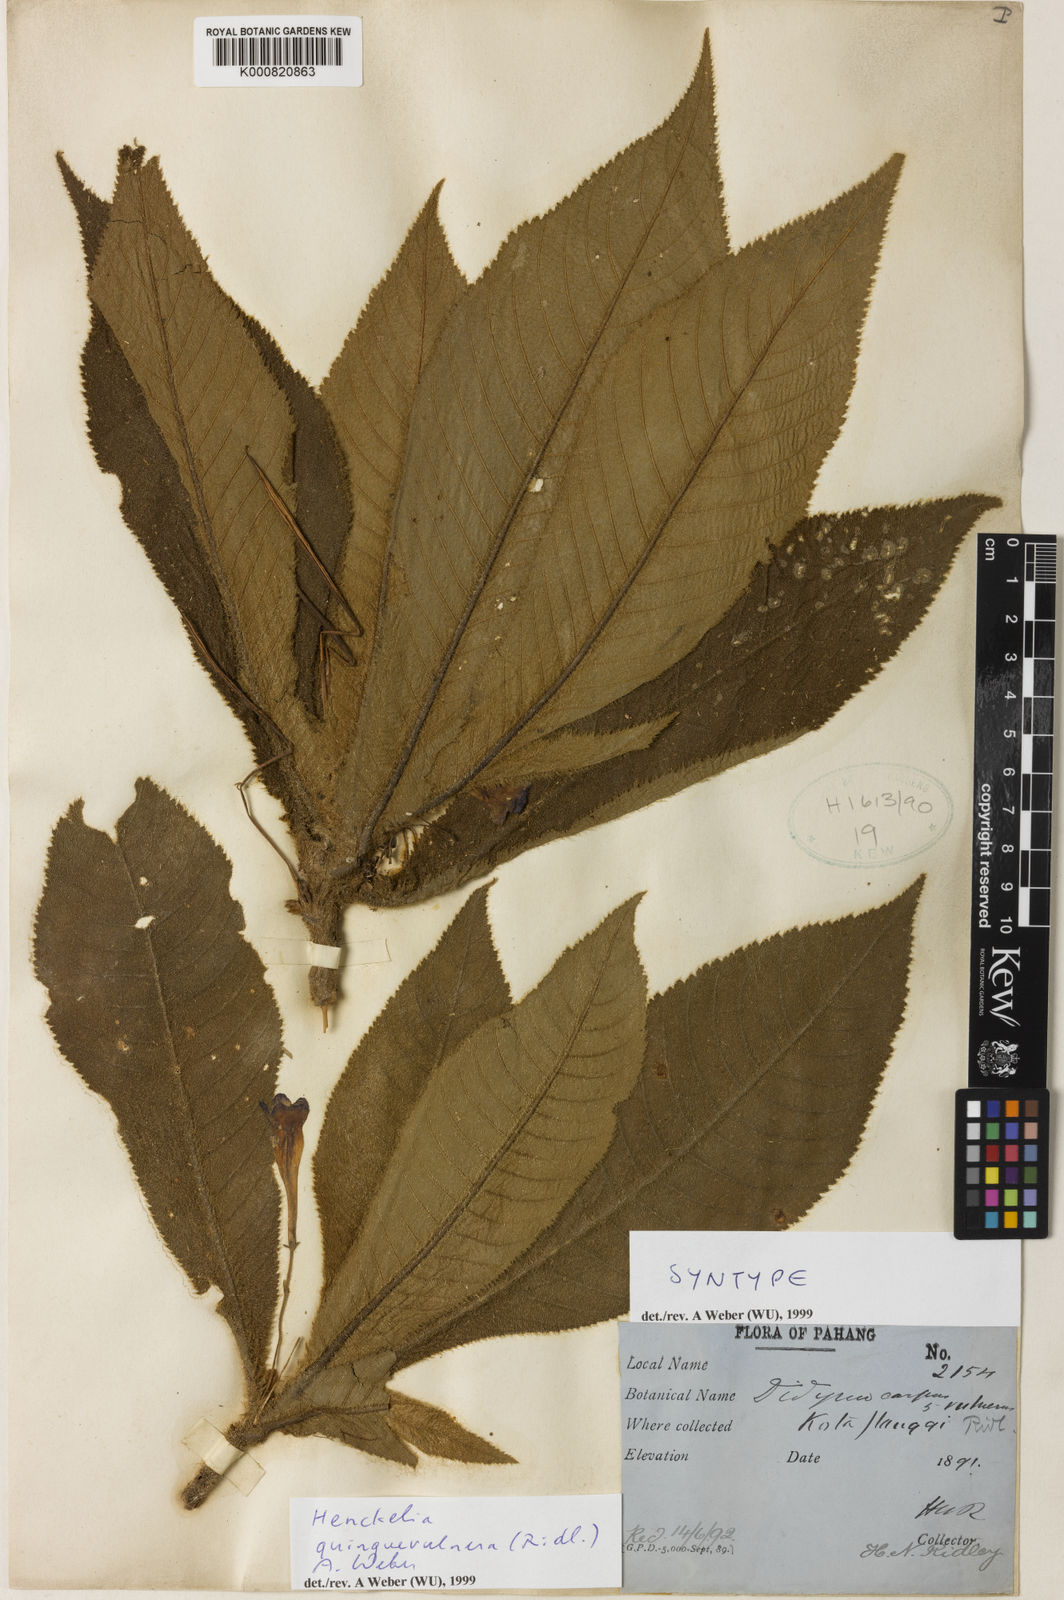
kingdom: Plantae
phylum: Tracheophyta
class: Magnoliopsida
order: Lamiales
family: Gesneriaceae
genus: Codonoboea
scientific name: Codonoboea quinquevulnera
